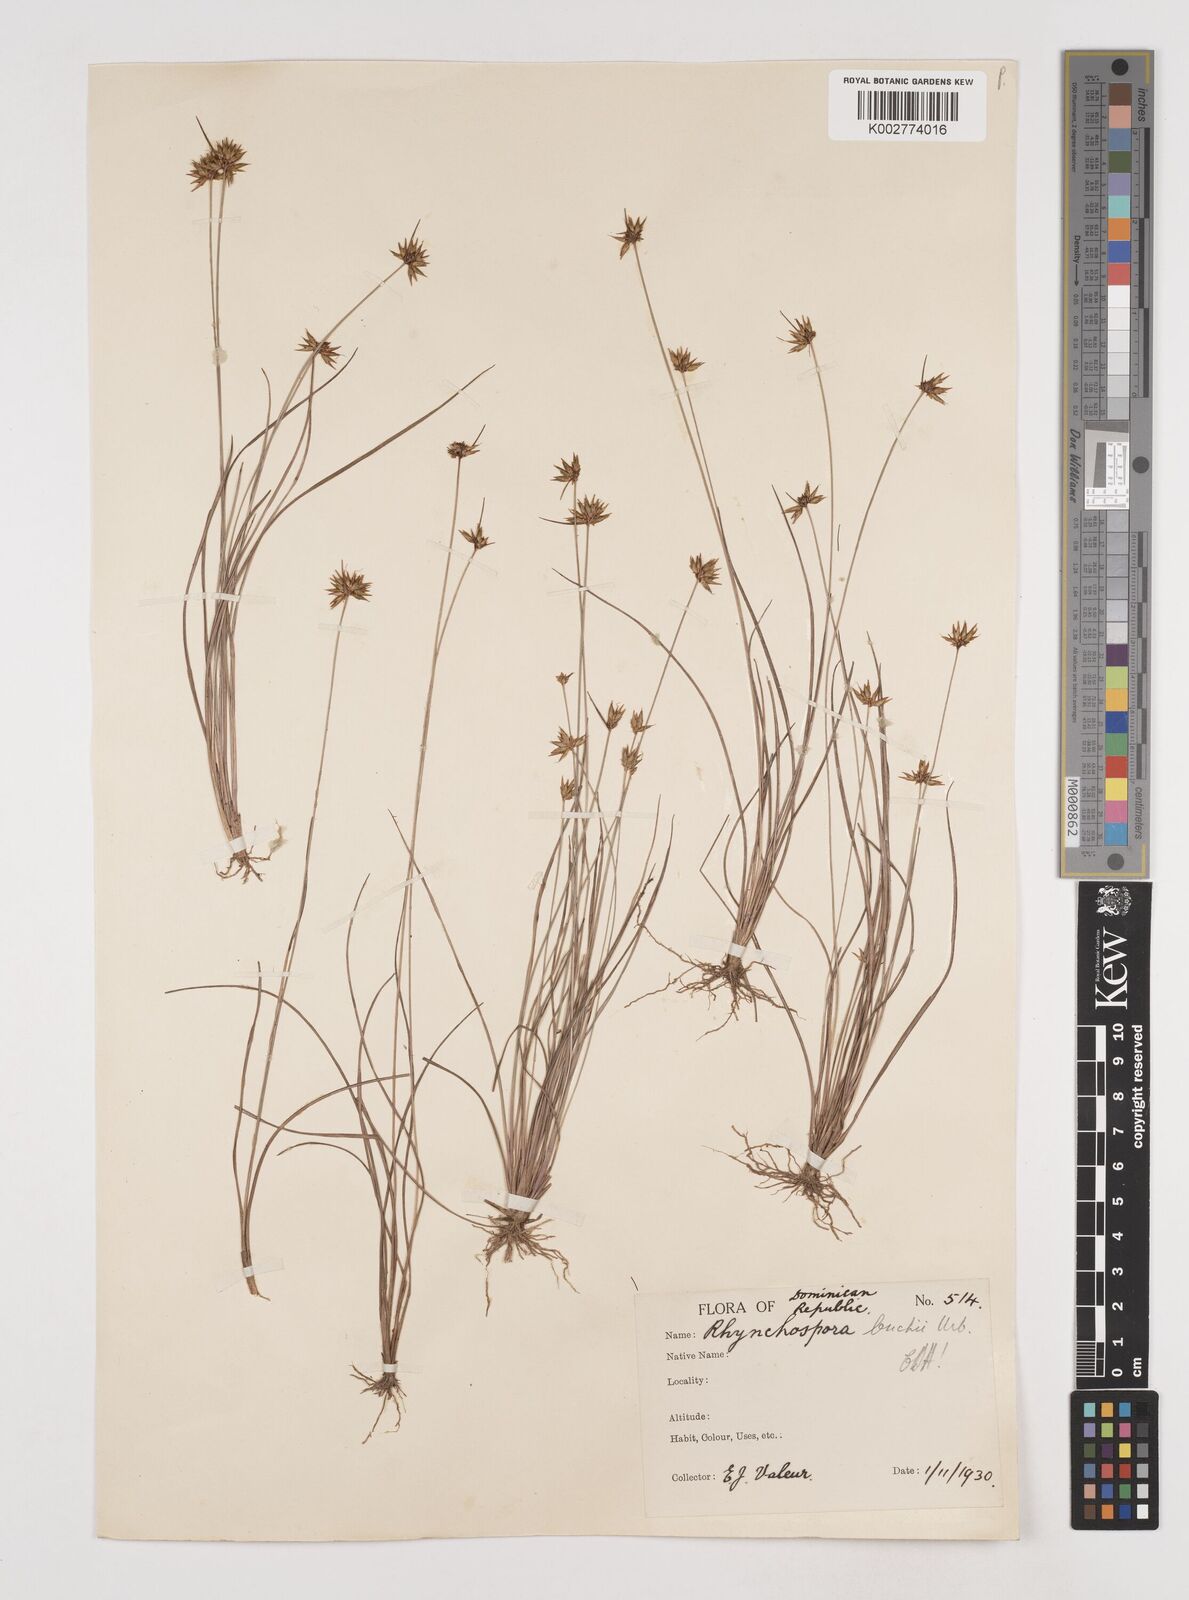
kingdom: Plantae
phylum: Tracheophyta
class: Liliopsida
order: Poales
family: Cyperaceae
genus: Rhynchospora
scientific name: Rhynchospora mexicana
